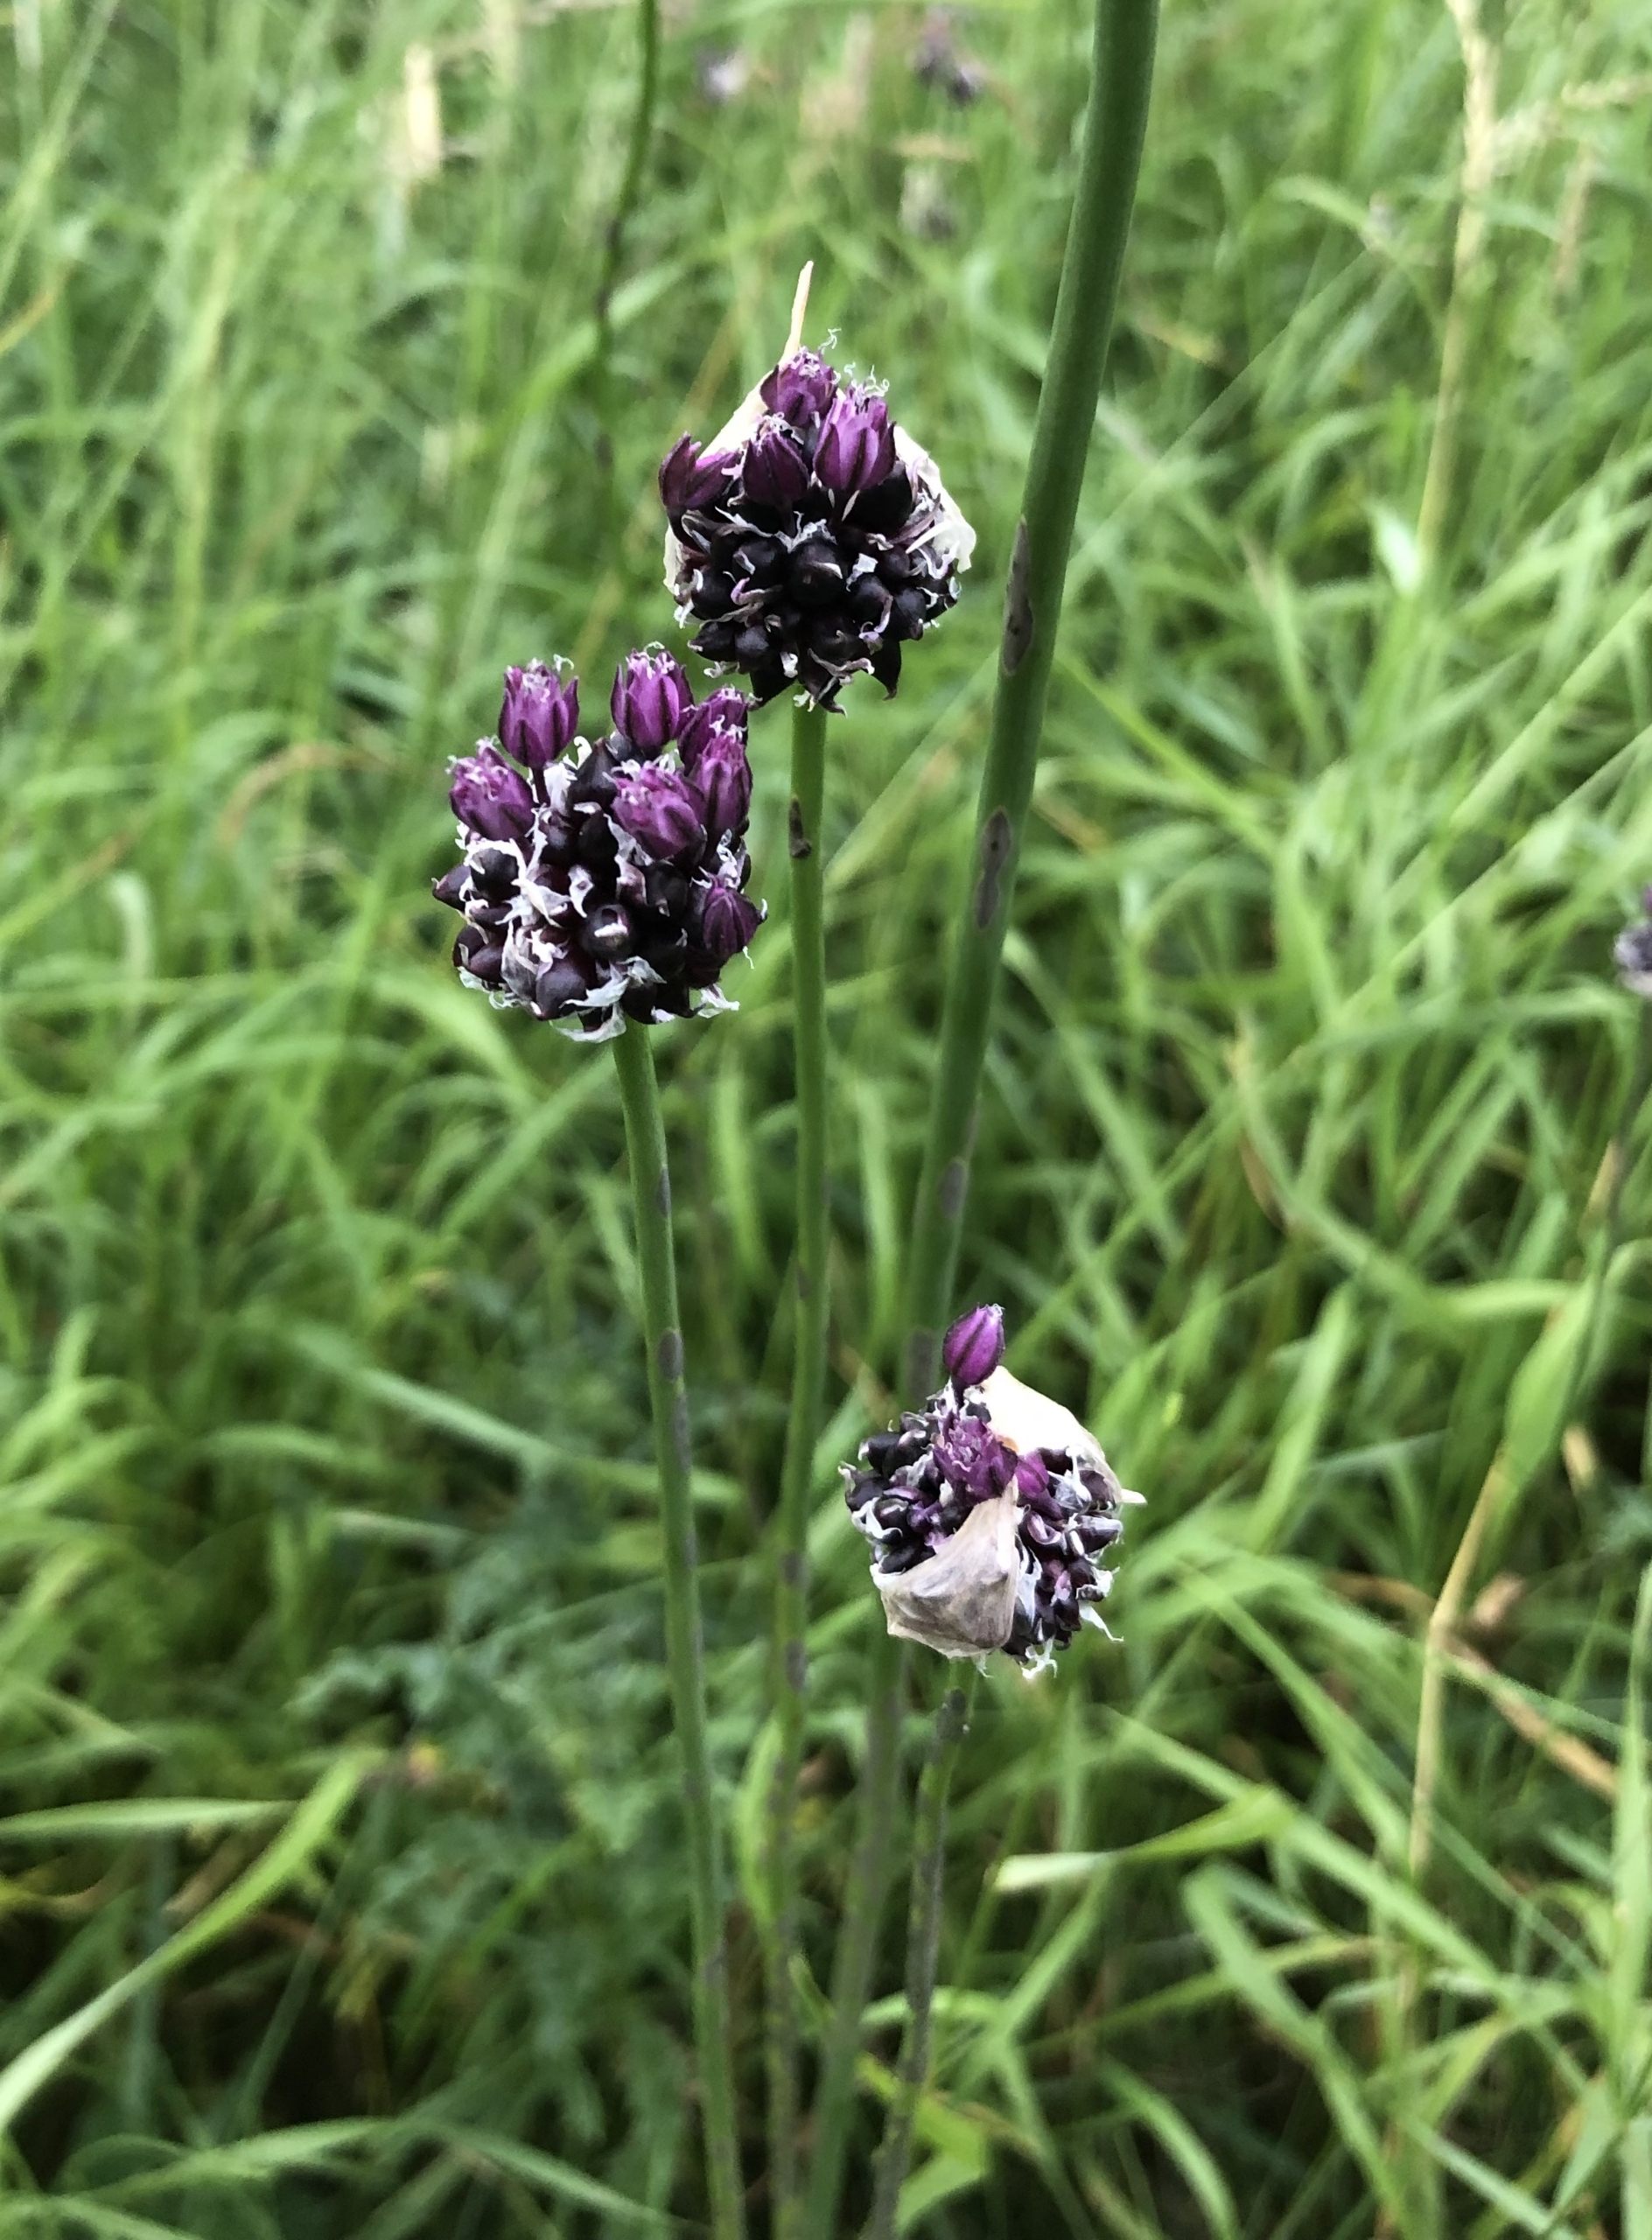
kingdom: Plantae
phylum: Tracheophyta
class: Liliopsida
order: Asparagales
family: Amaryllidaceae
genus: Allium
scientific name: Allium scorodoprasum
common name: Skov-løg
